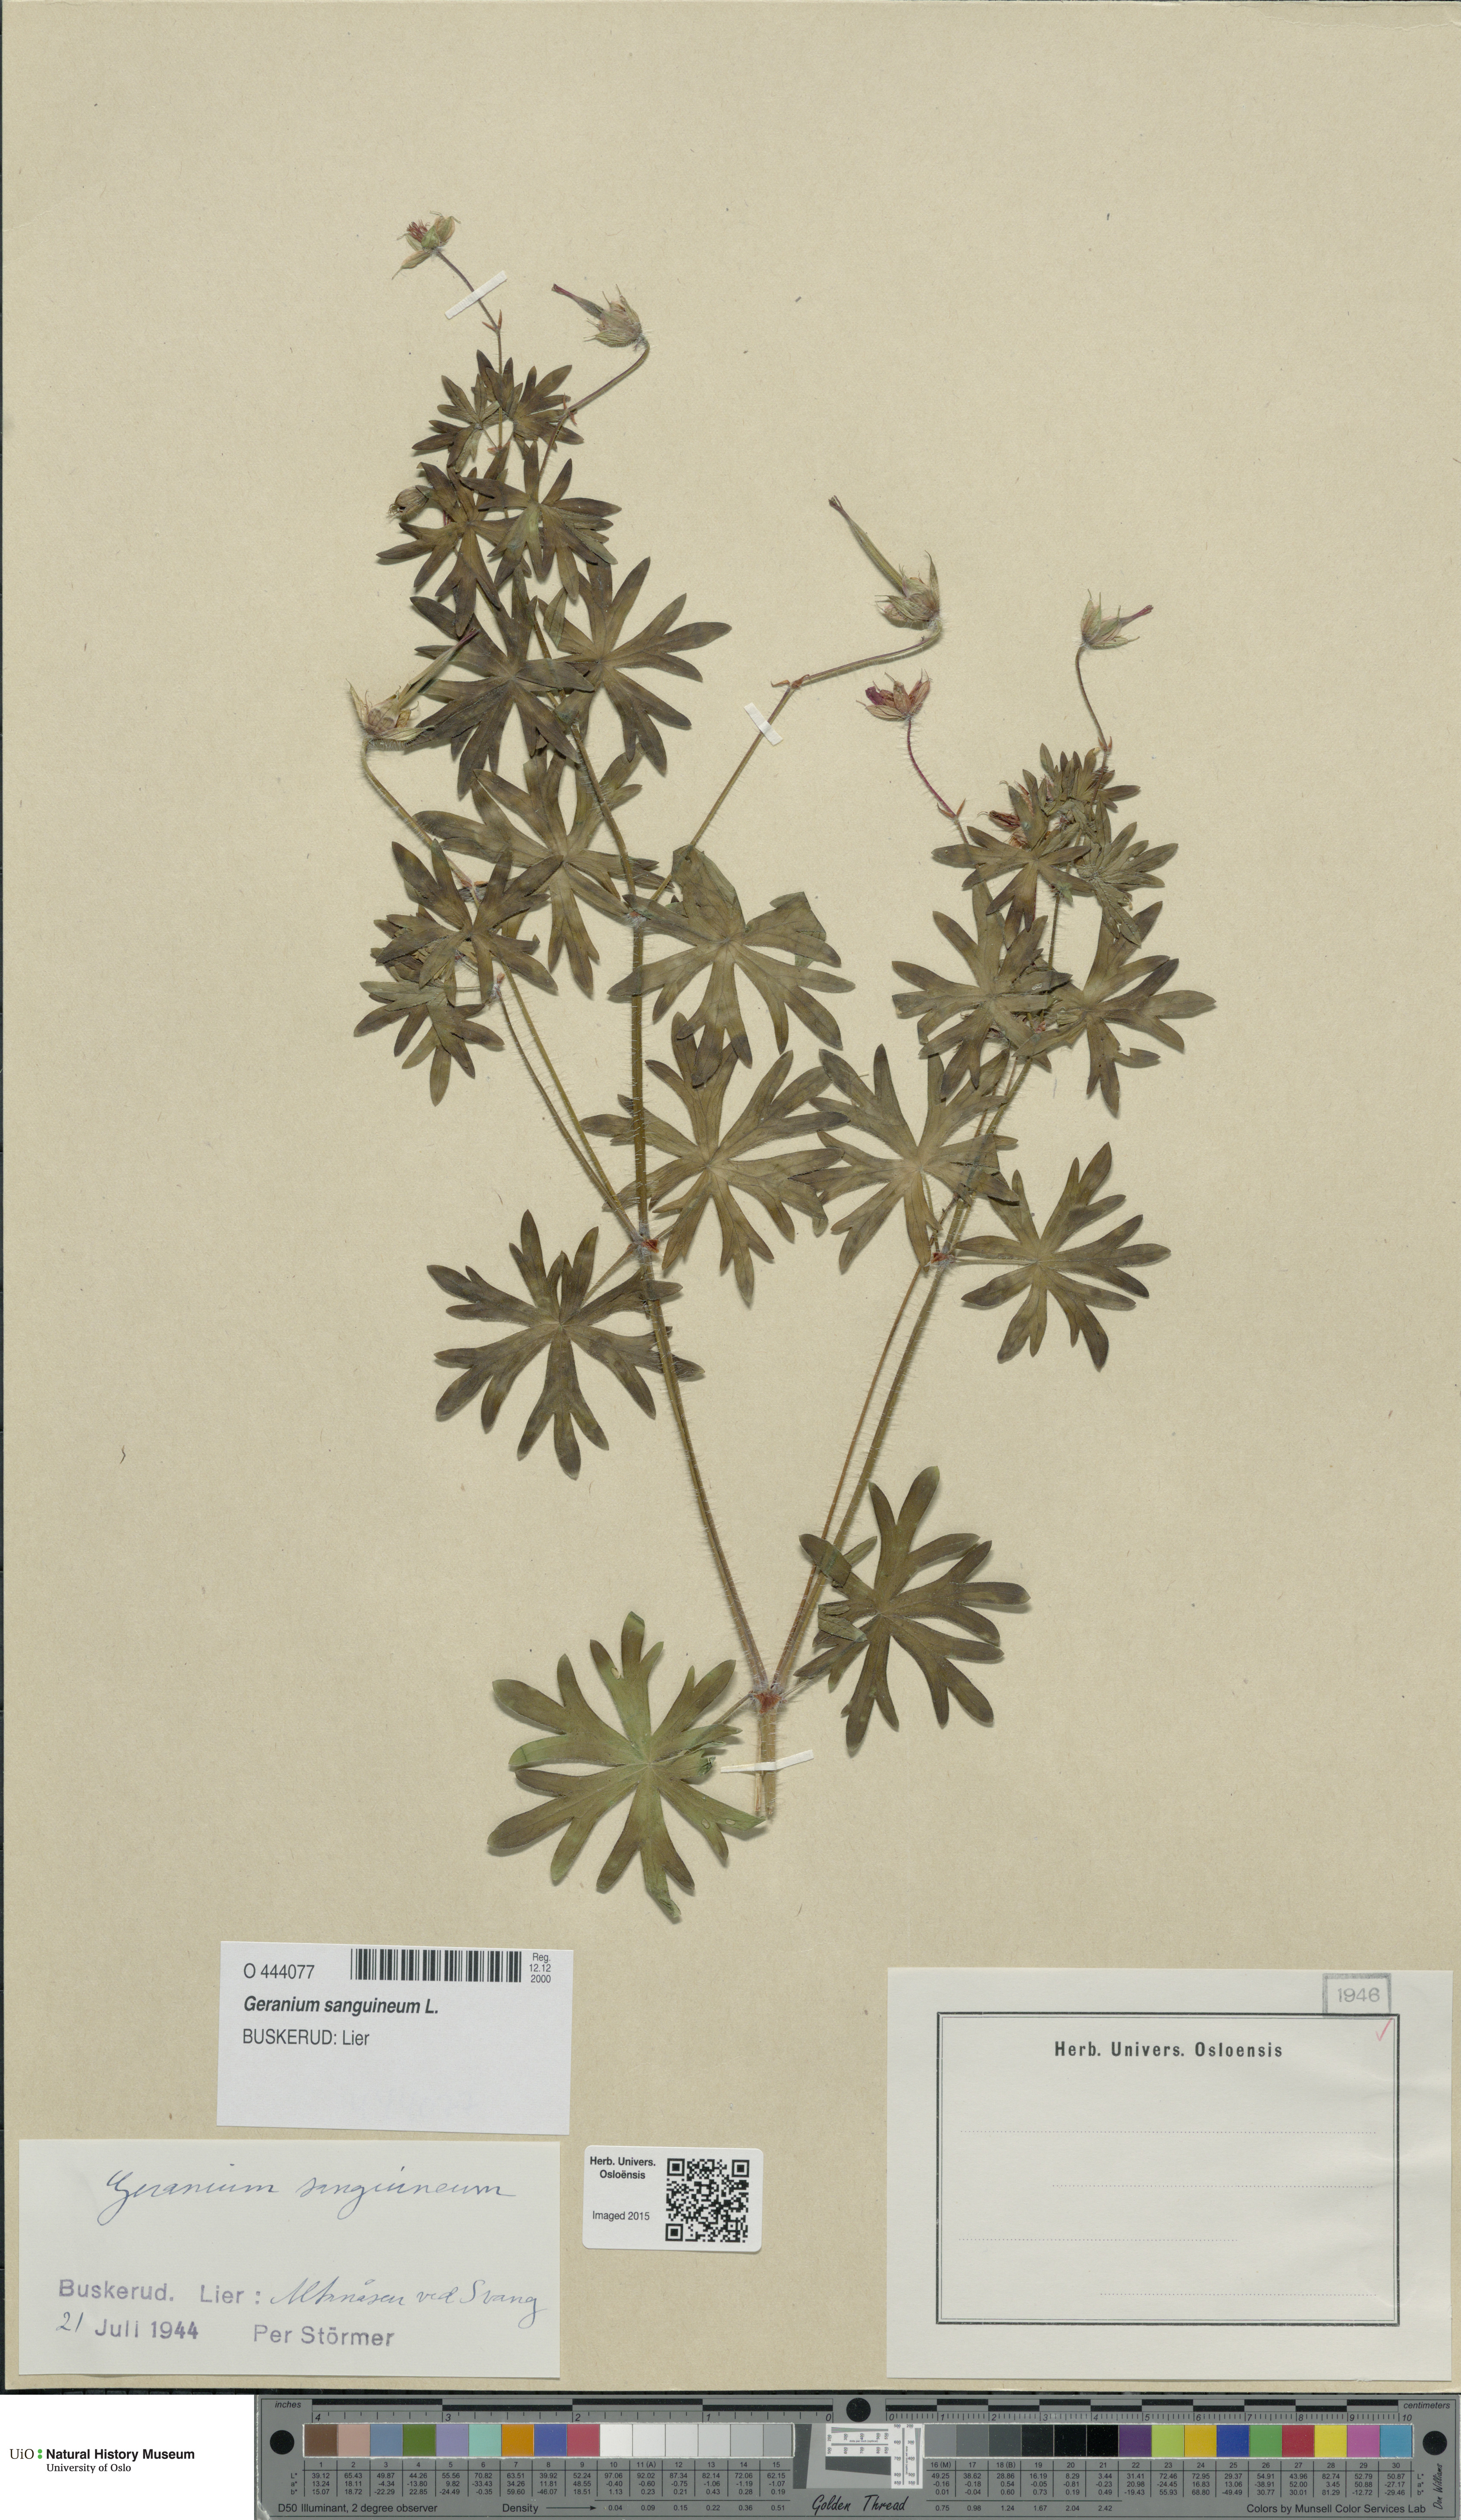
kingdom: Plantae
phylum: Tracheophyta
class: Magnoliopsida
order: Geraniales
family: Geraniaceae
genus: Geranium
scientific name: Geranium sanguineum
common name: Bloody crane's-bill
